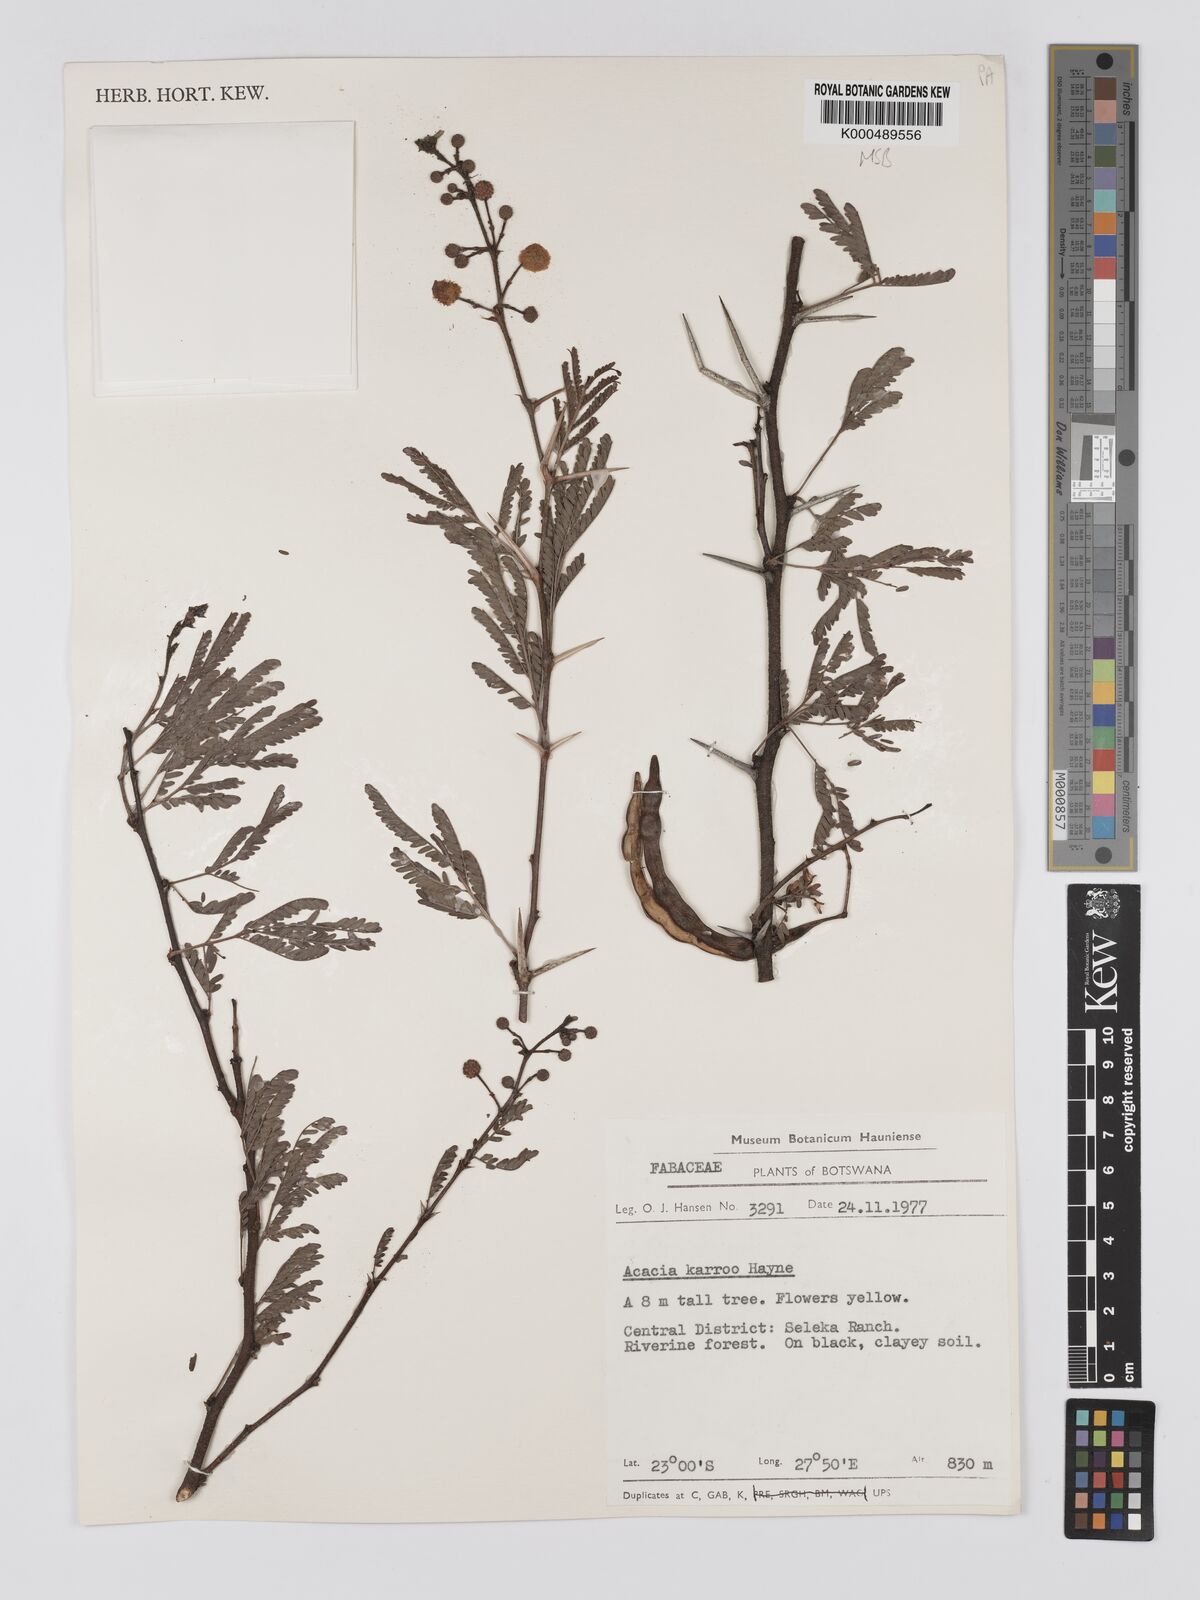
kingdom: Plantae
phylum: Tracheophyta
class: Magnoliopsida
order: Fabales
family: Fabaceae
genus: Vachellia
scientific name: Vachellia karroo
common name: Sweet thorn
